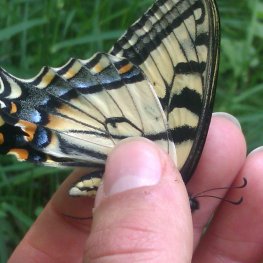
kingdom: Animalia
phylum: Arthropoda
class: Insecta
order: Lepidoptera
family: Papilionidae
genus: Pterourus
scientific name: Pterourus canadensis
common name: Canadian Tiger Swallowtail
